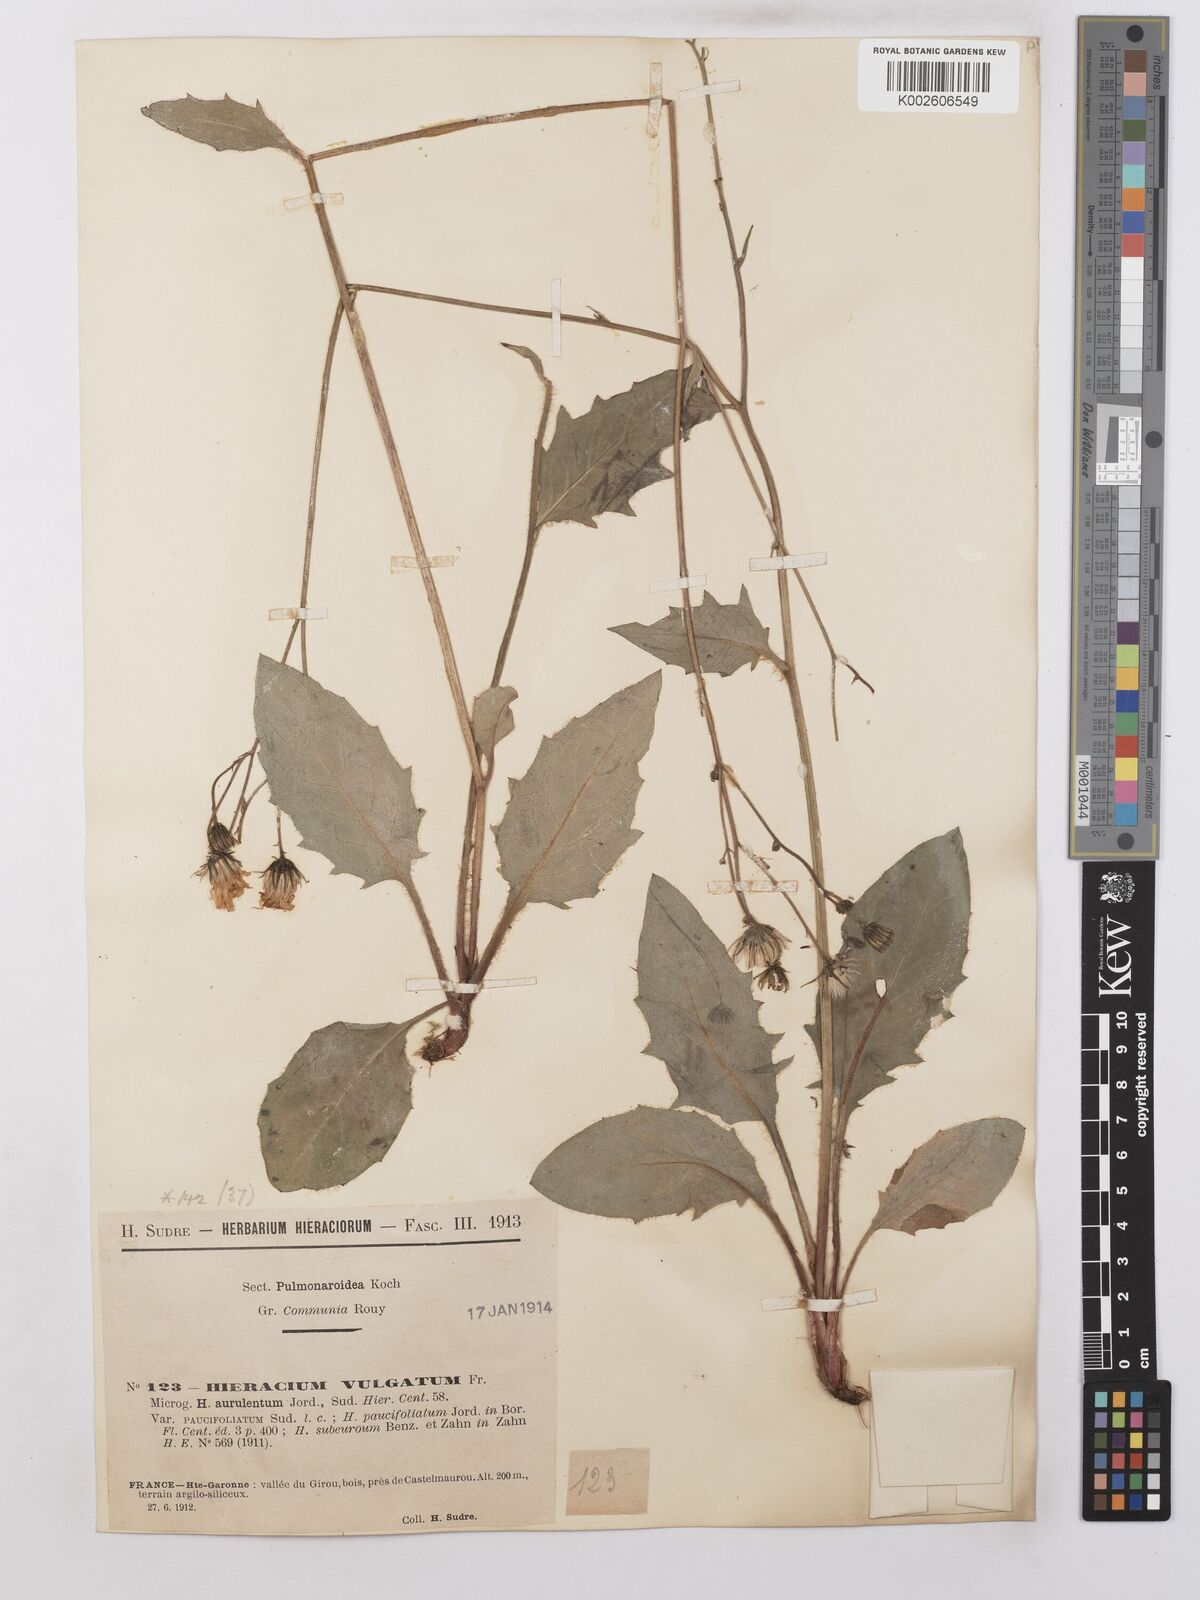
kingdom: Plantae
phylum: Tracheophyta
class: Magnoliopsida
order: Asterales
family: Asteraceae
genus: Hieracium
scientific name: Hieracium lachenalii
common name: Common hawkweed
